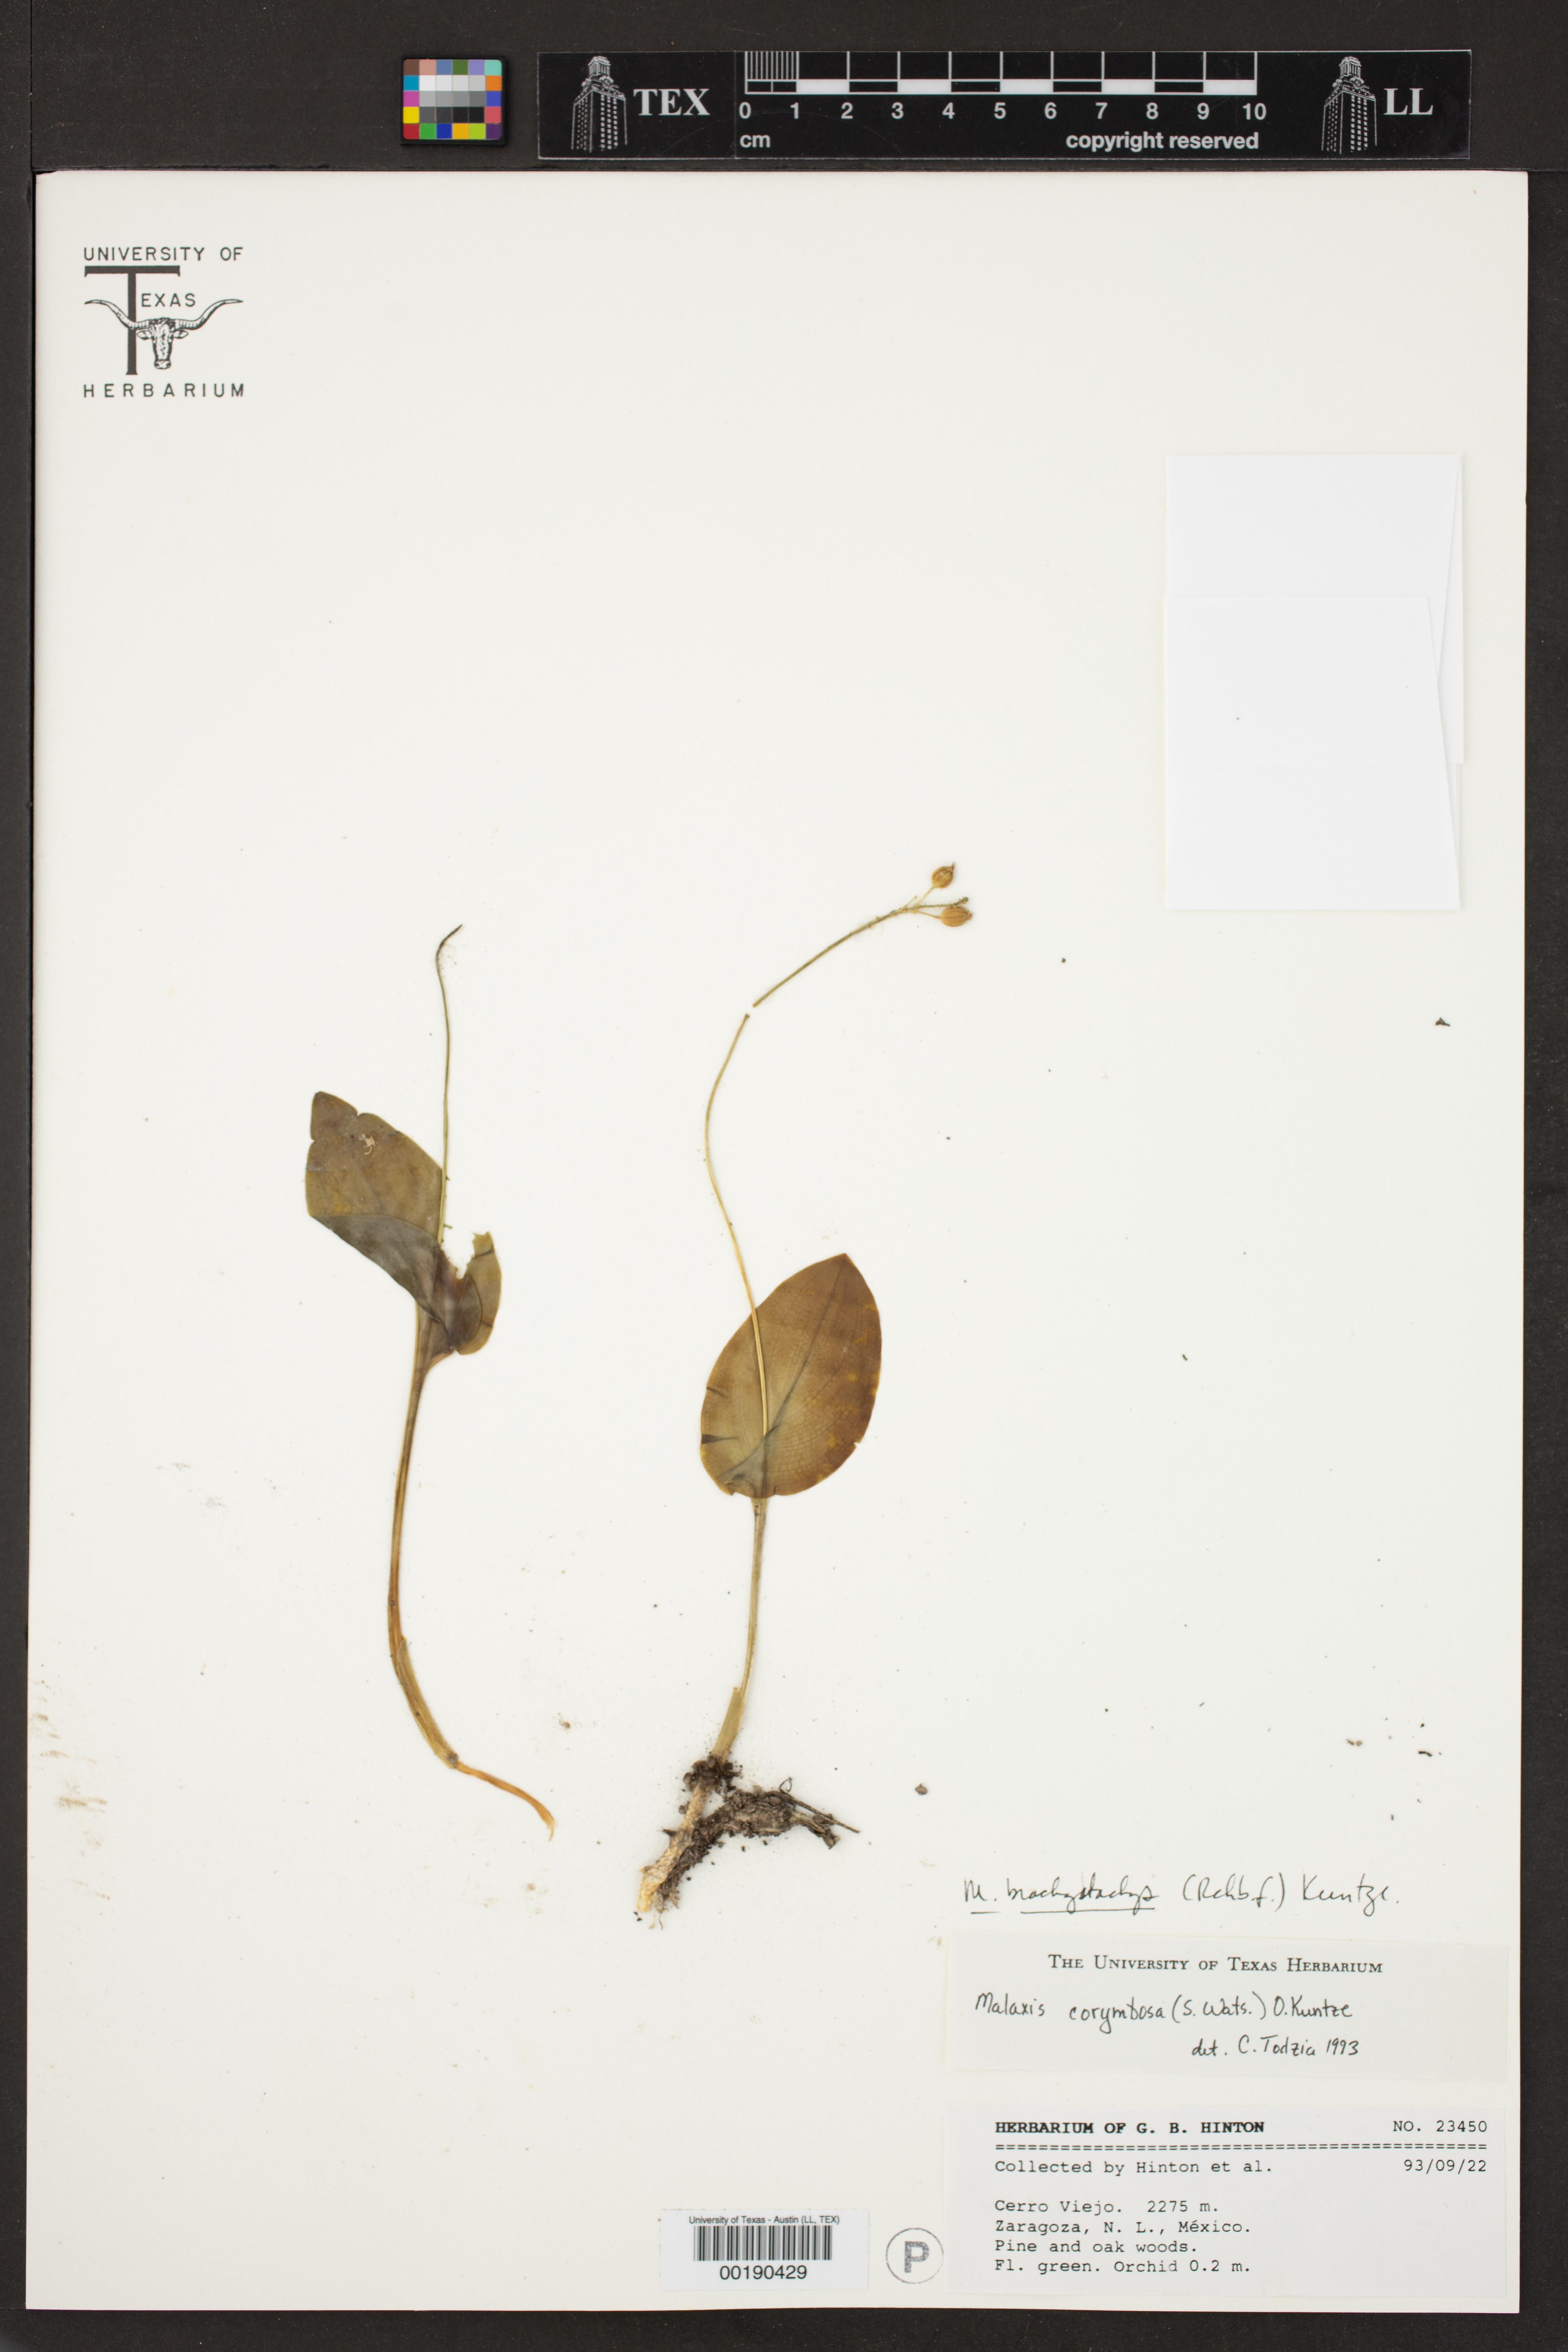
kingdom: Plantae
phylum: Tracheophyta
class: Liliopsida
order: Asparagales
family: Orchidaceae
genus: Malaxis
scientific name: Malaxis brachystachys
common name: Huachuca adder's-mouth
